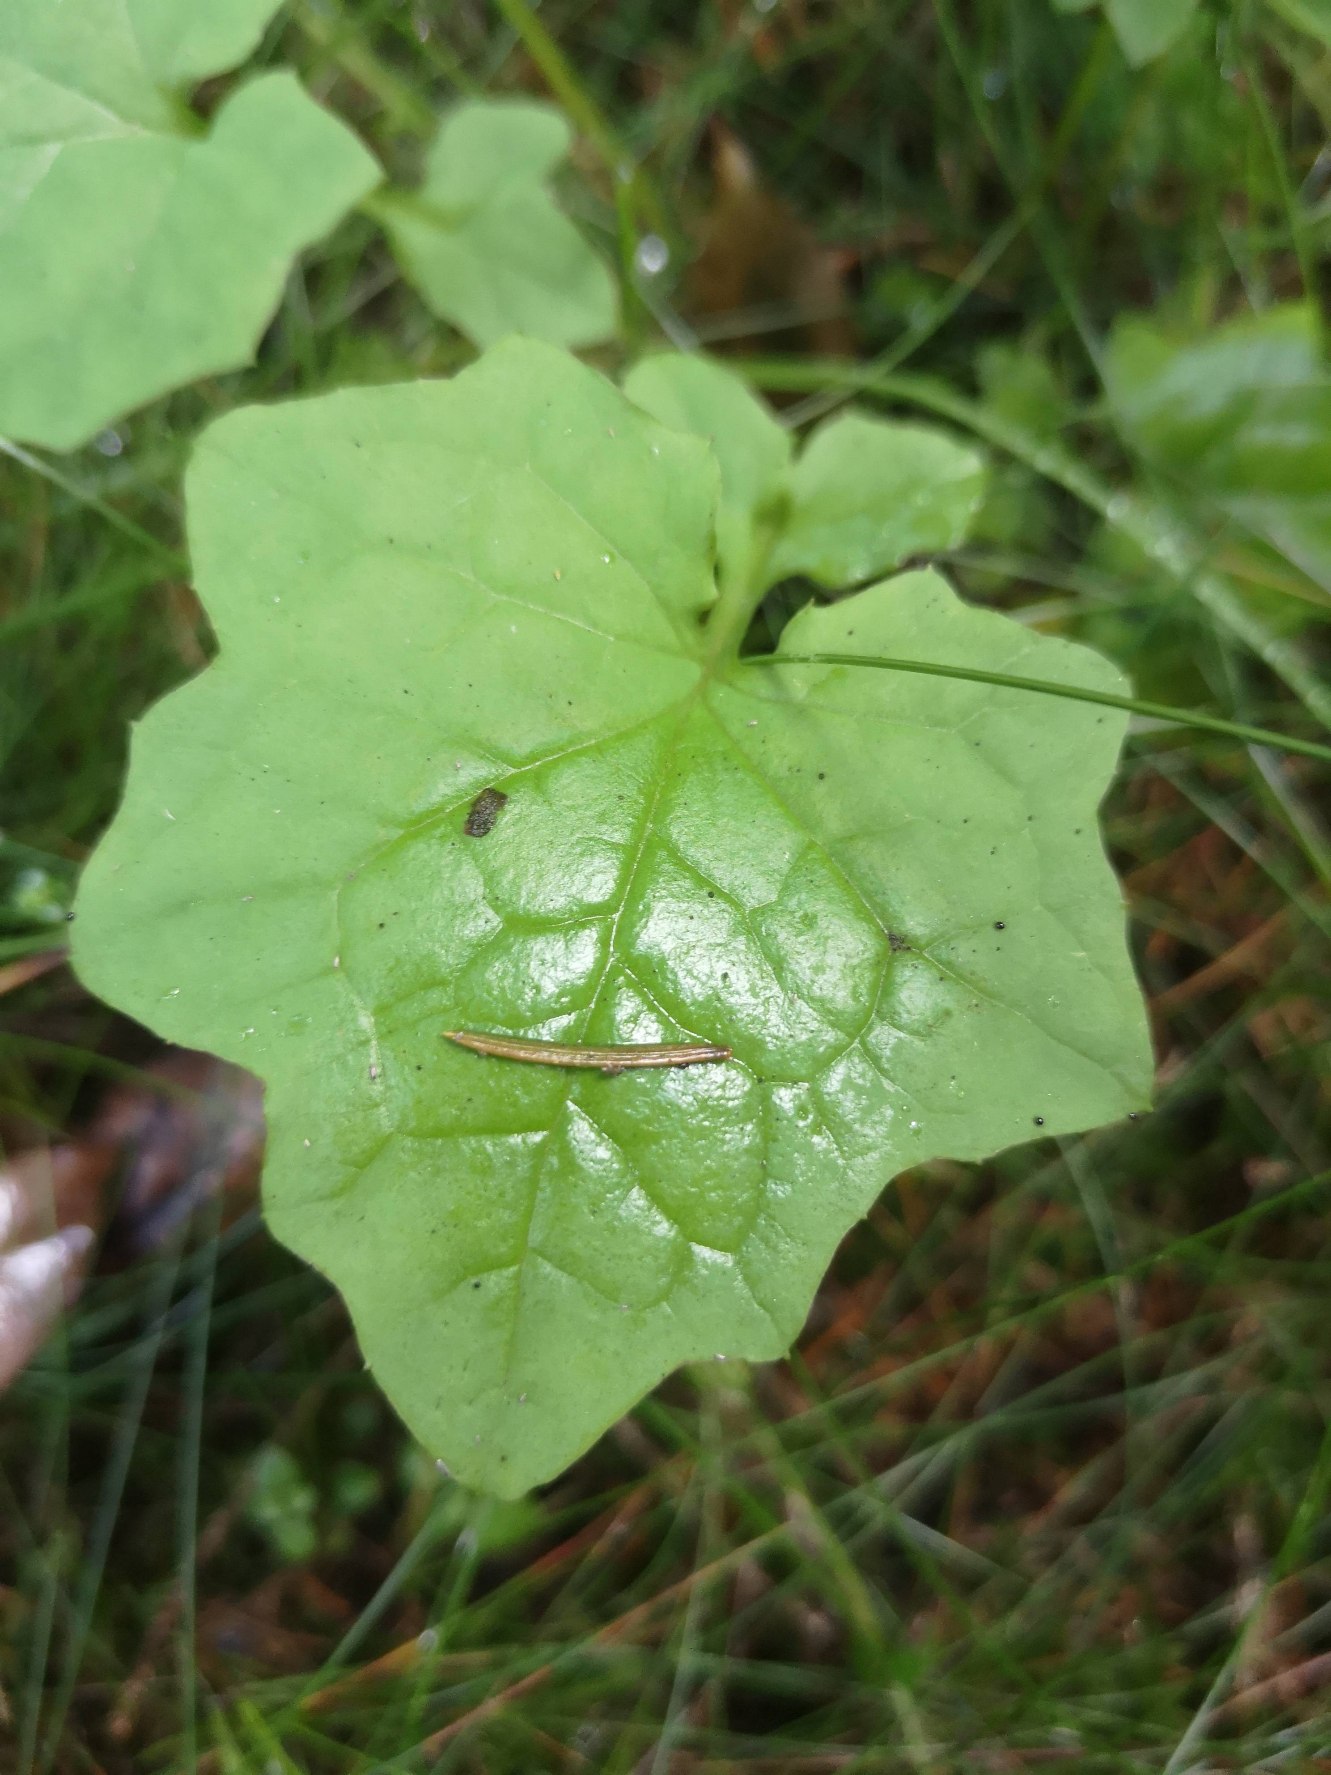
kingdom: Plantae
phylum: Tracheophyta
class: Magnoliopsida
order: Asterales
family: Asteraceae
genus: Mycelis
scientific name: Mycelis muralis
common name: Skov-salat
